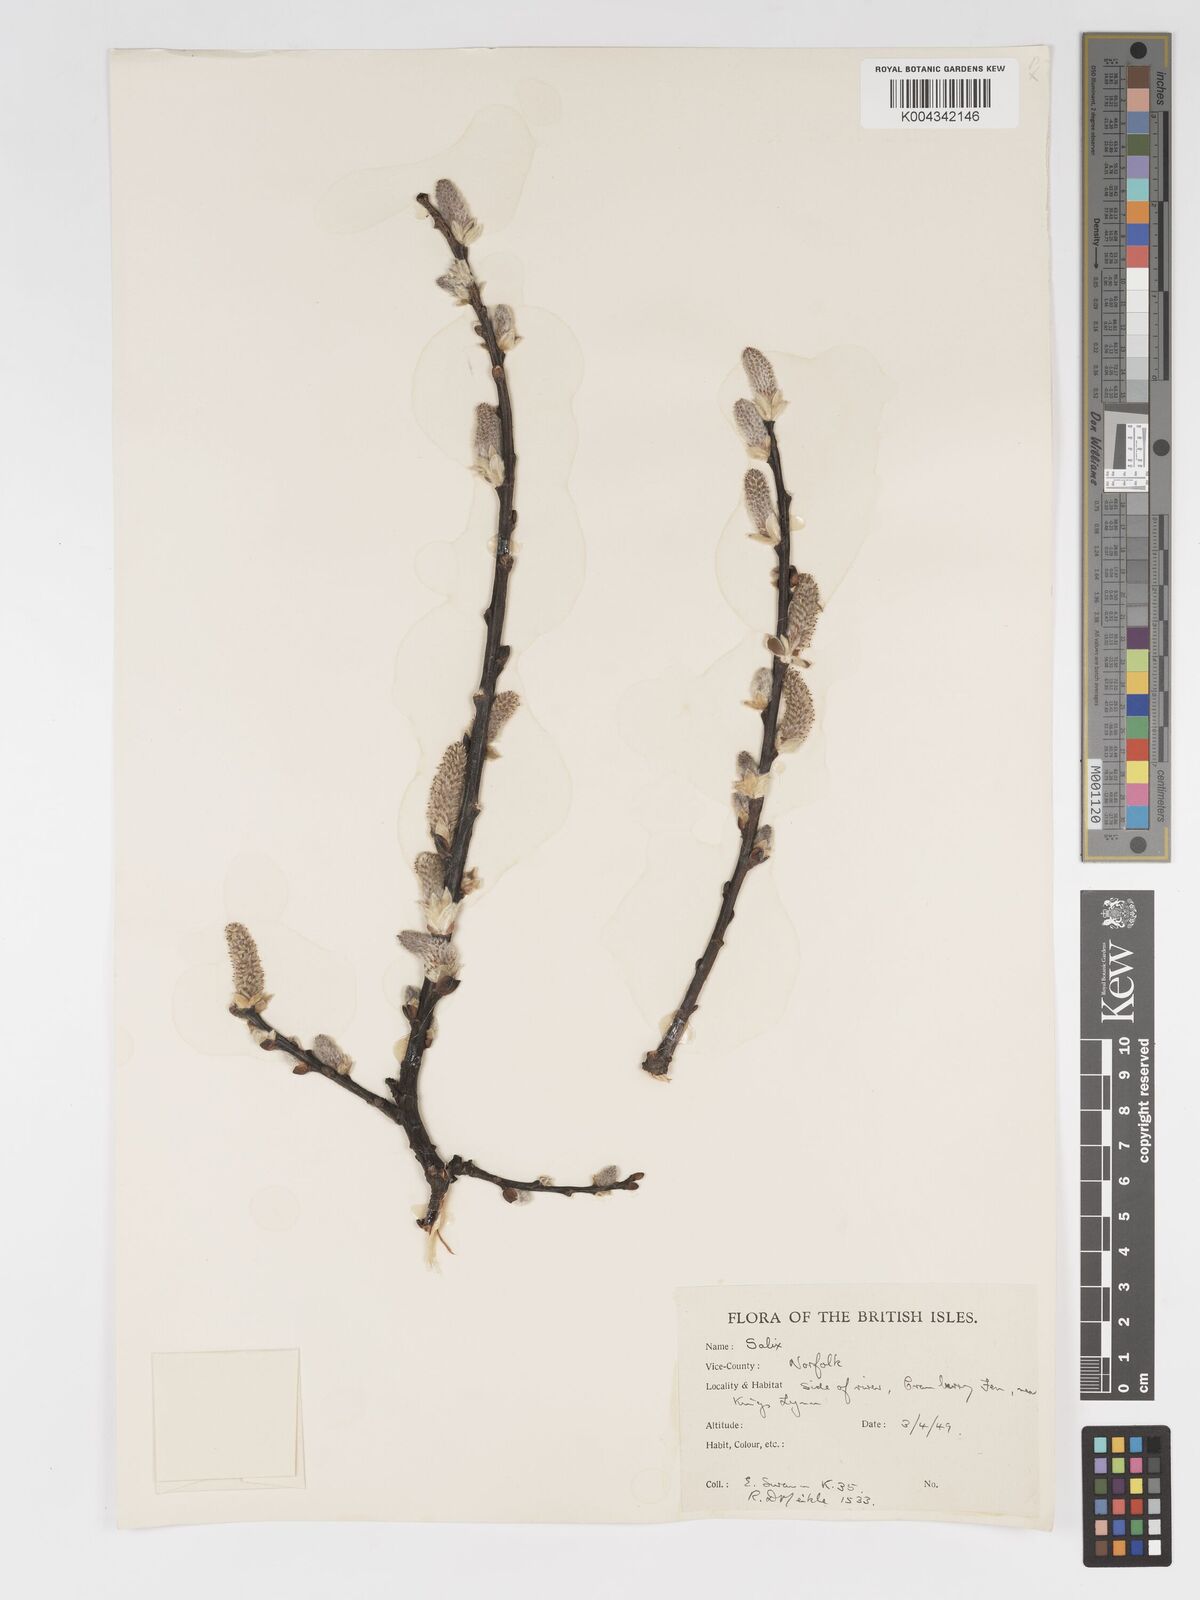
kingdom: Plantae
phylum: Tracheophyta
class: Magnoliopsida
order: Malpighiales
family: Salicaceae
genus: Salix
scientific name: Salix
